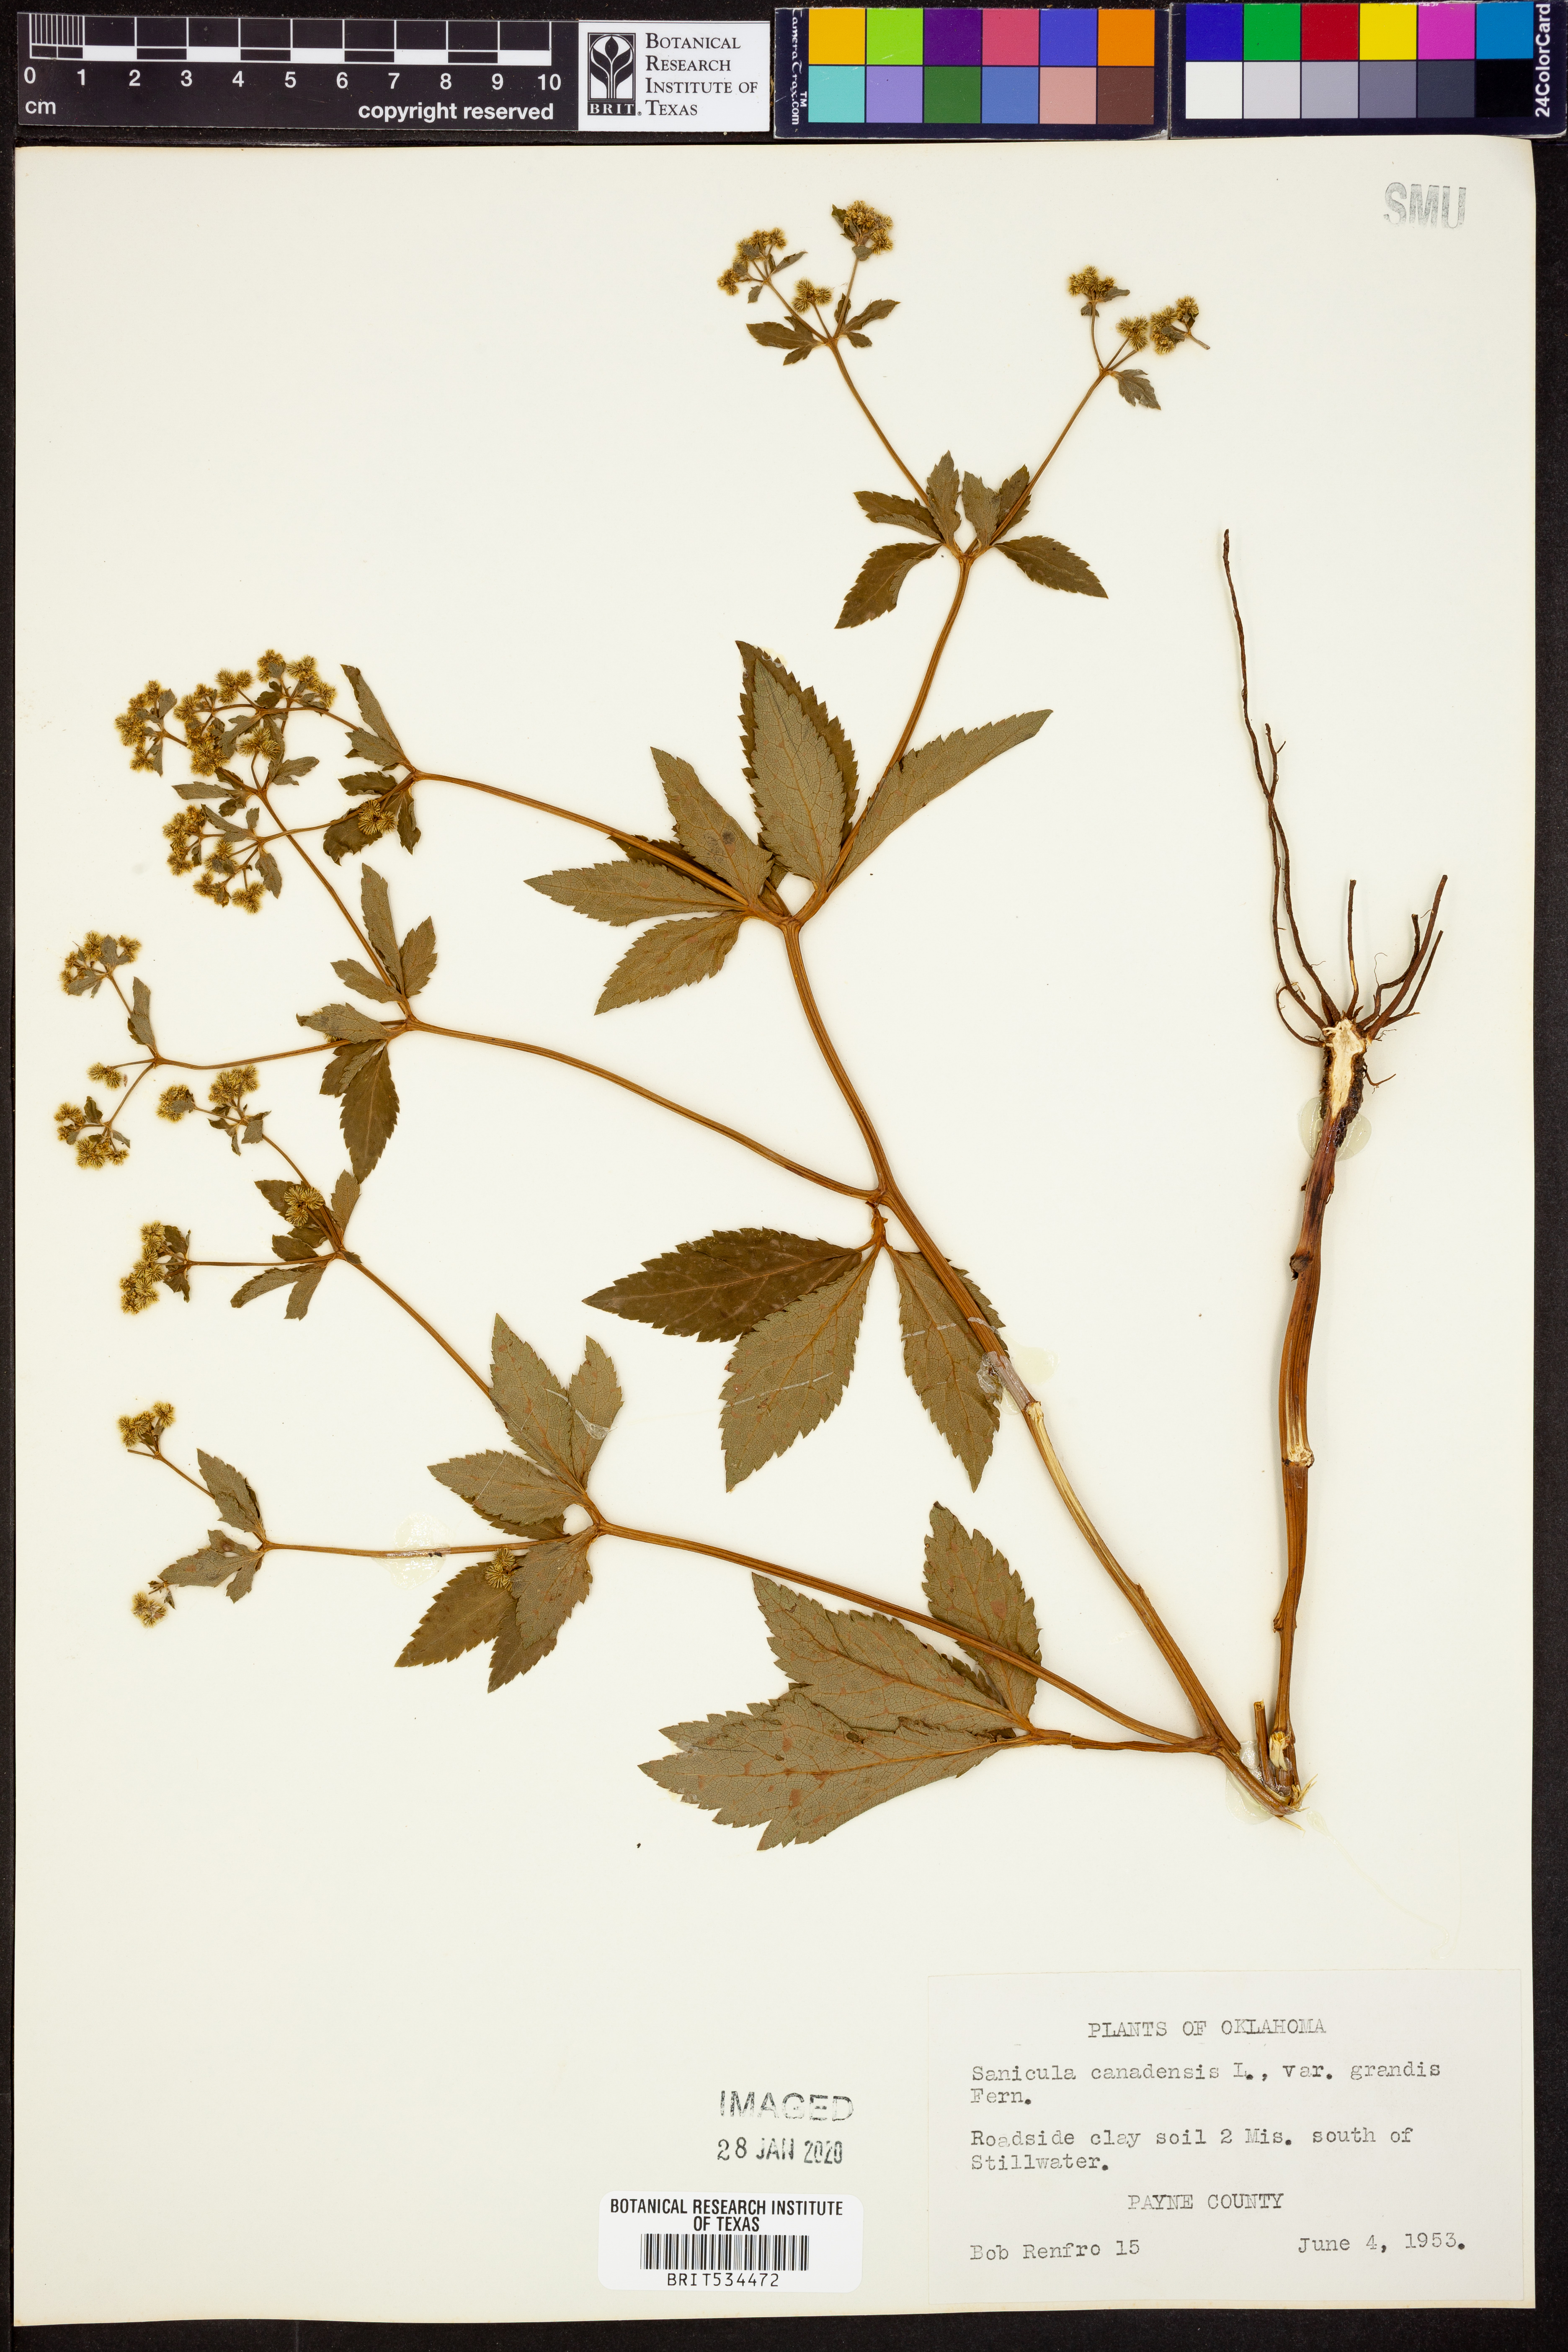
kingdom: Plantae
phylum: Tracheophyta
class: Magnoliopsida
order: Apiales
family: Apiaceae
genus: Sanicula
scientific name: Sanicula canadensis
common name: Canada sanicle
